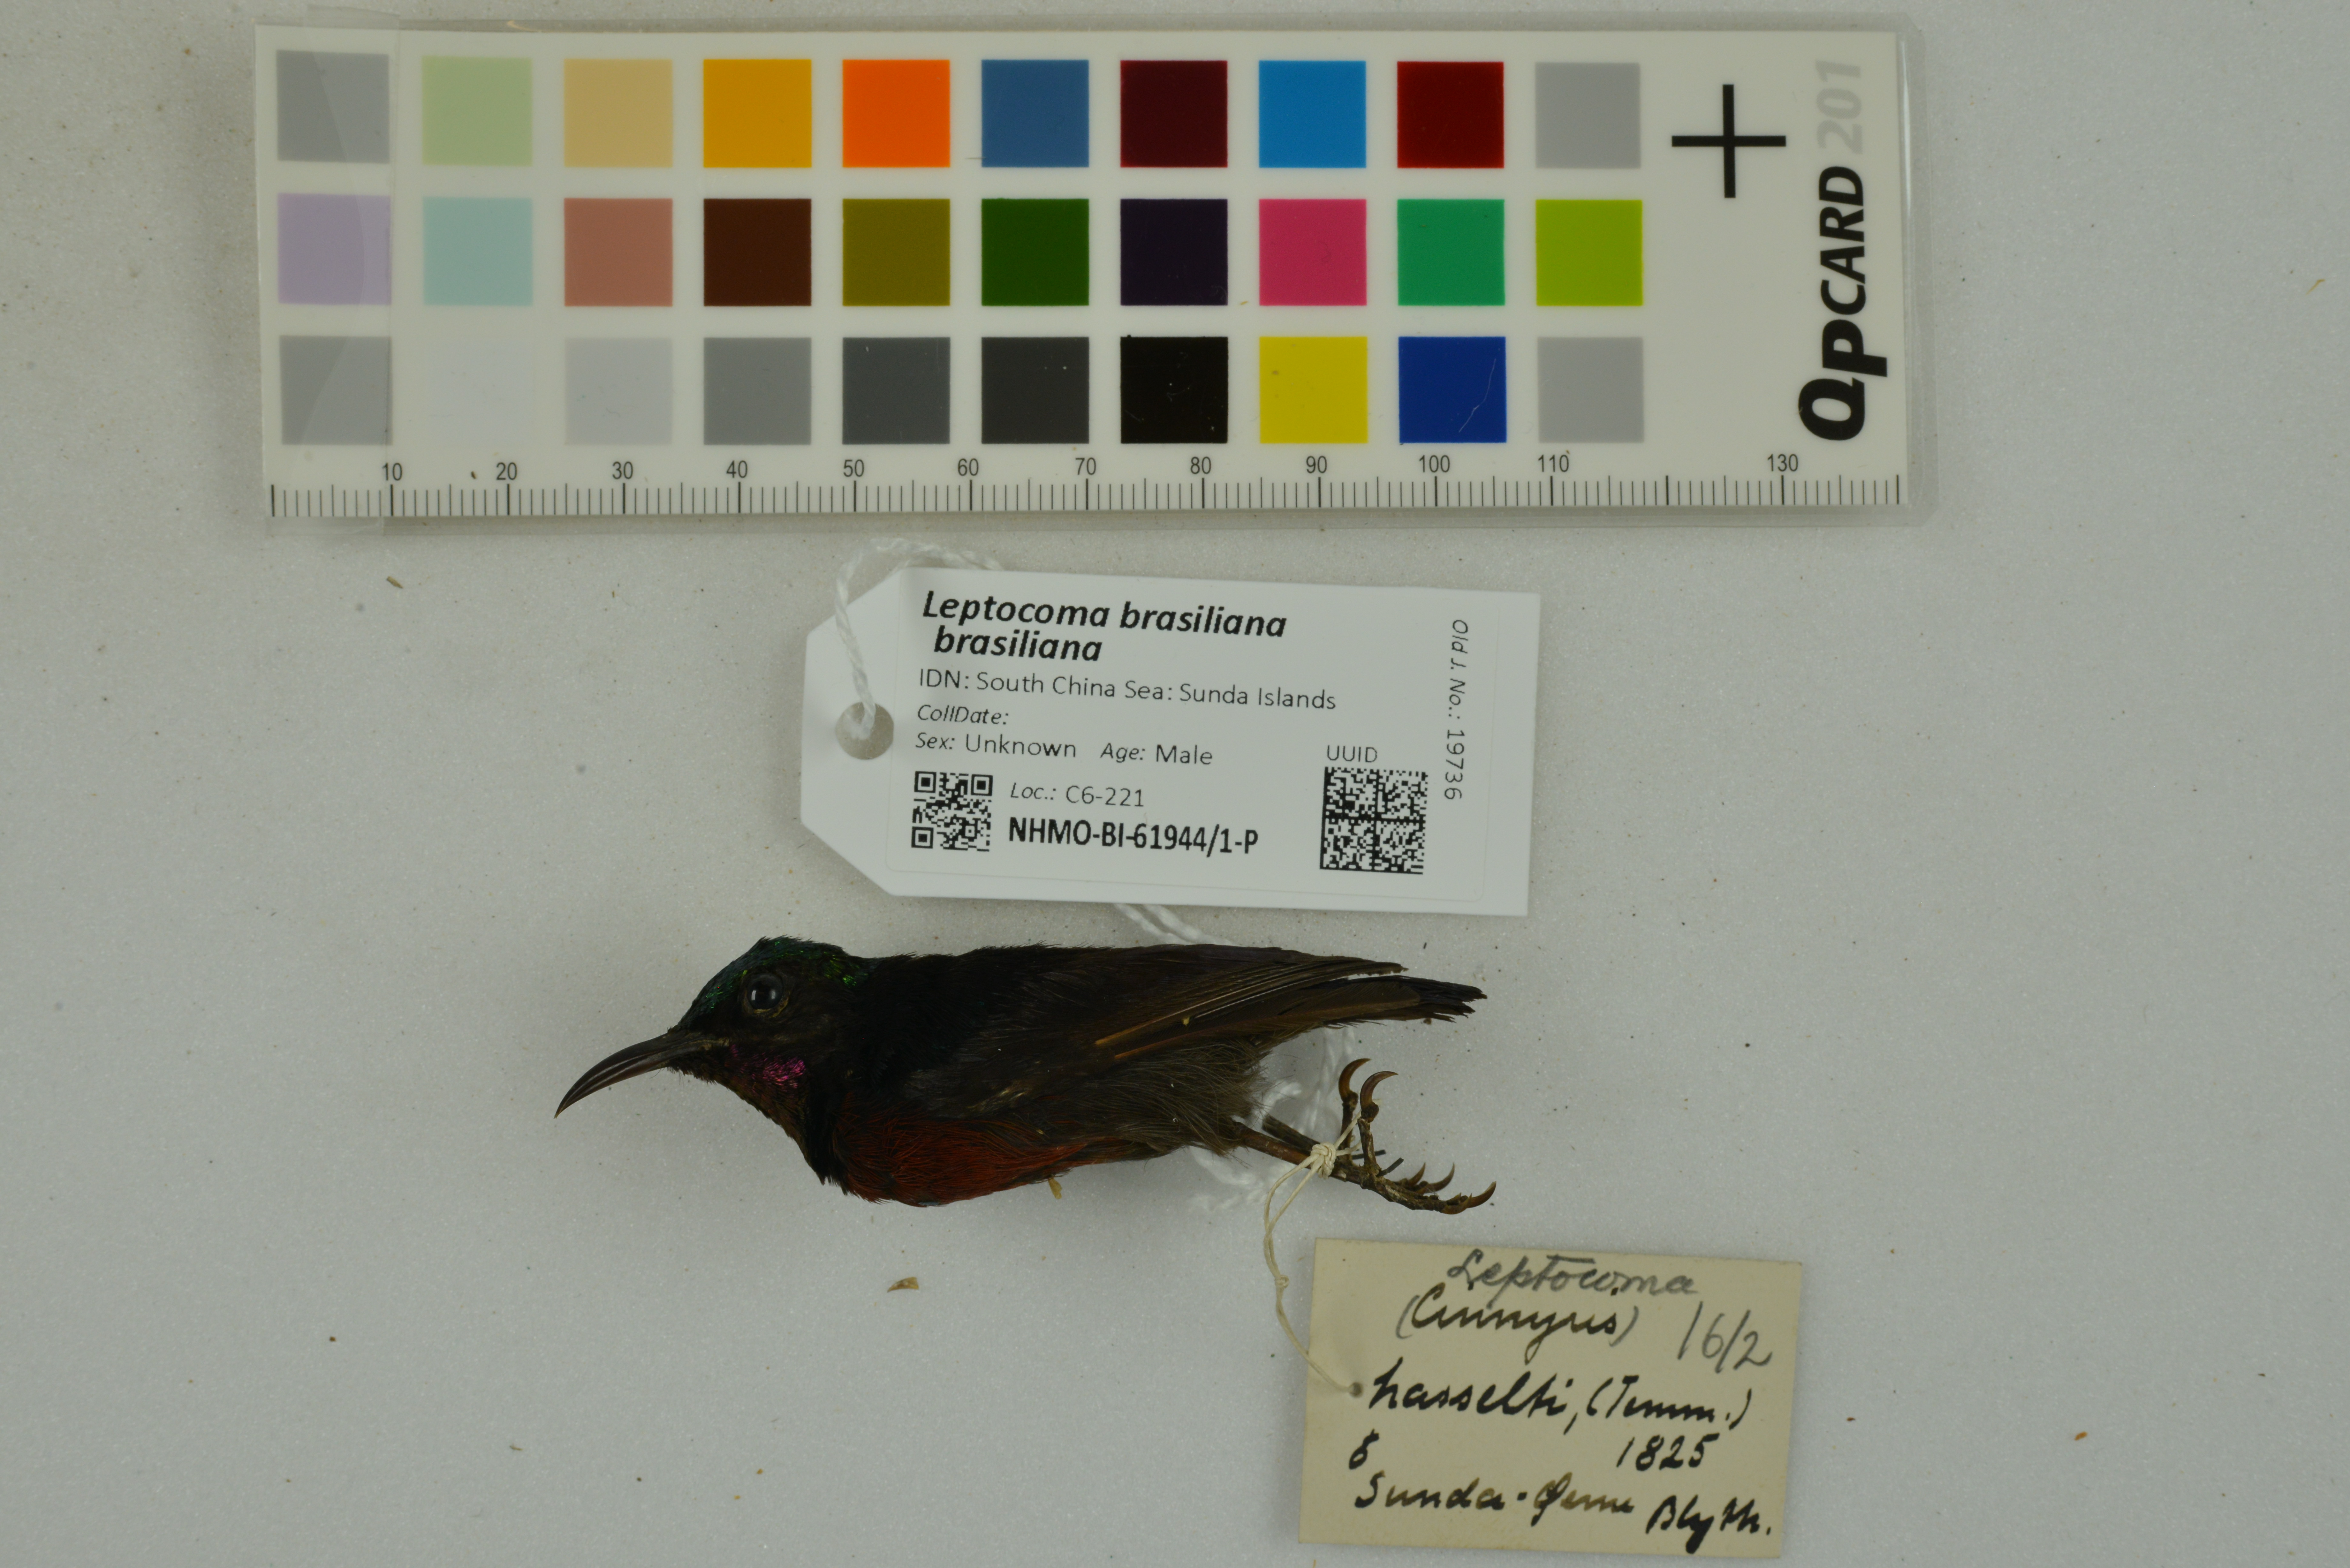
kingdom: Animalia
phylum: Chordata
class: Aves
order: Passeriformes
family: Nectariniidae
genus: Leptocoma
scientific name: Leptocoma brasiliana
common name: Van hasselt's sunbird
